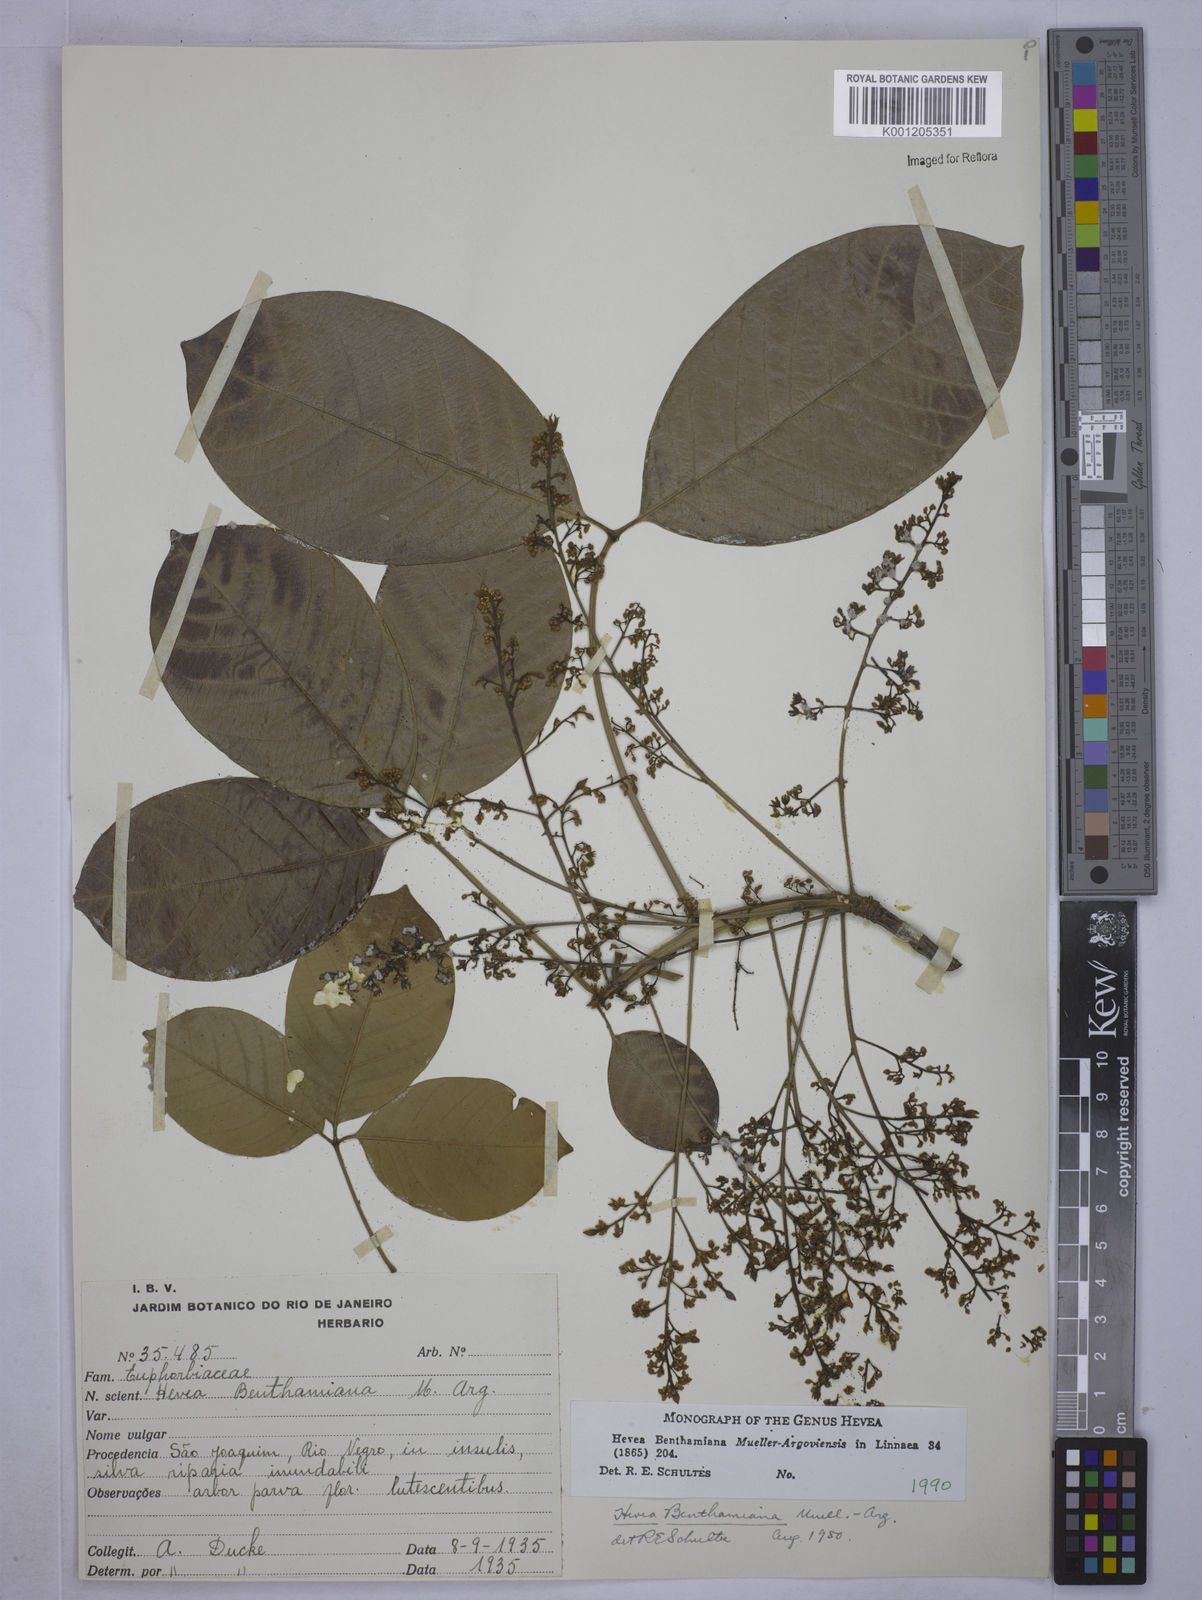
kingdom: Plantae
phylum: Tracheophyta
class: Magnoliopsida
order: Malpighiales
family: Euphorbiaceae
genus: Hevea
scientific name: Hevea
